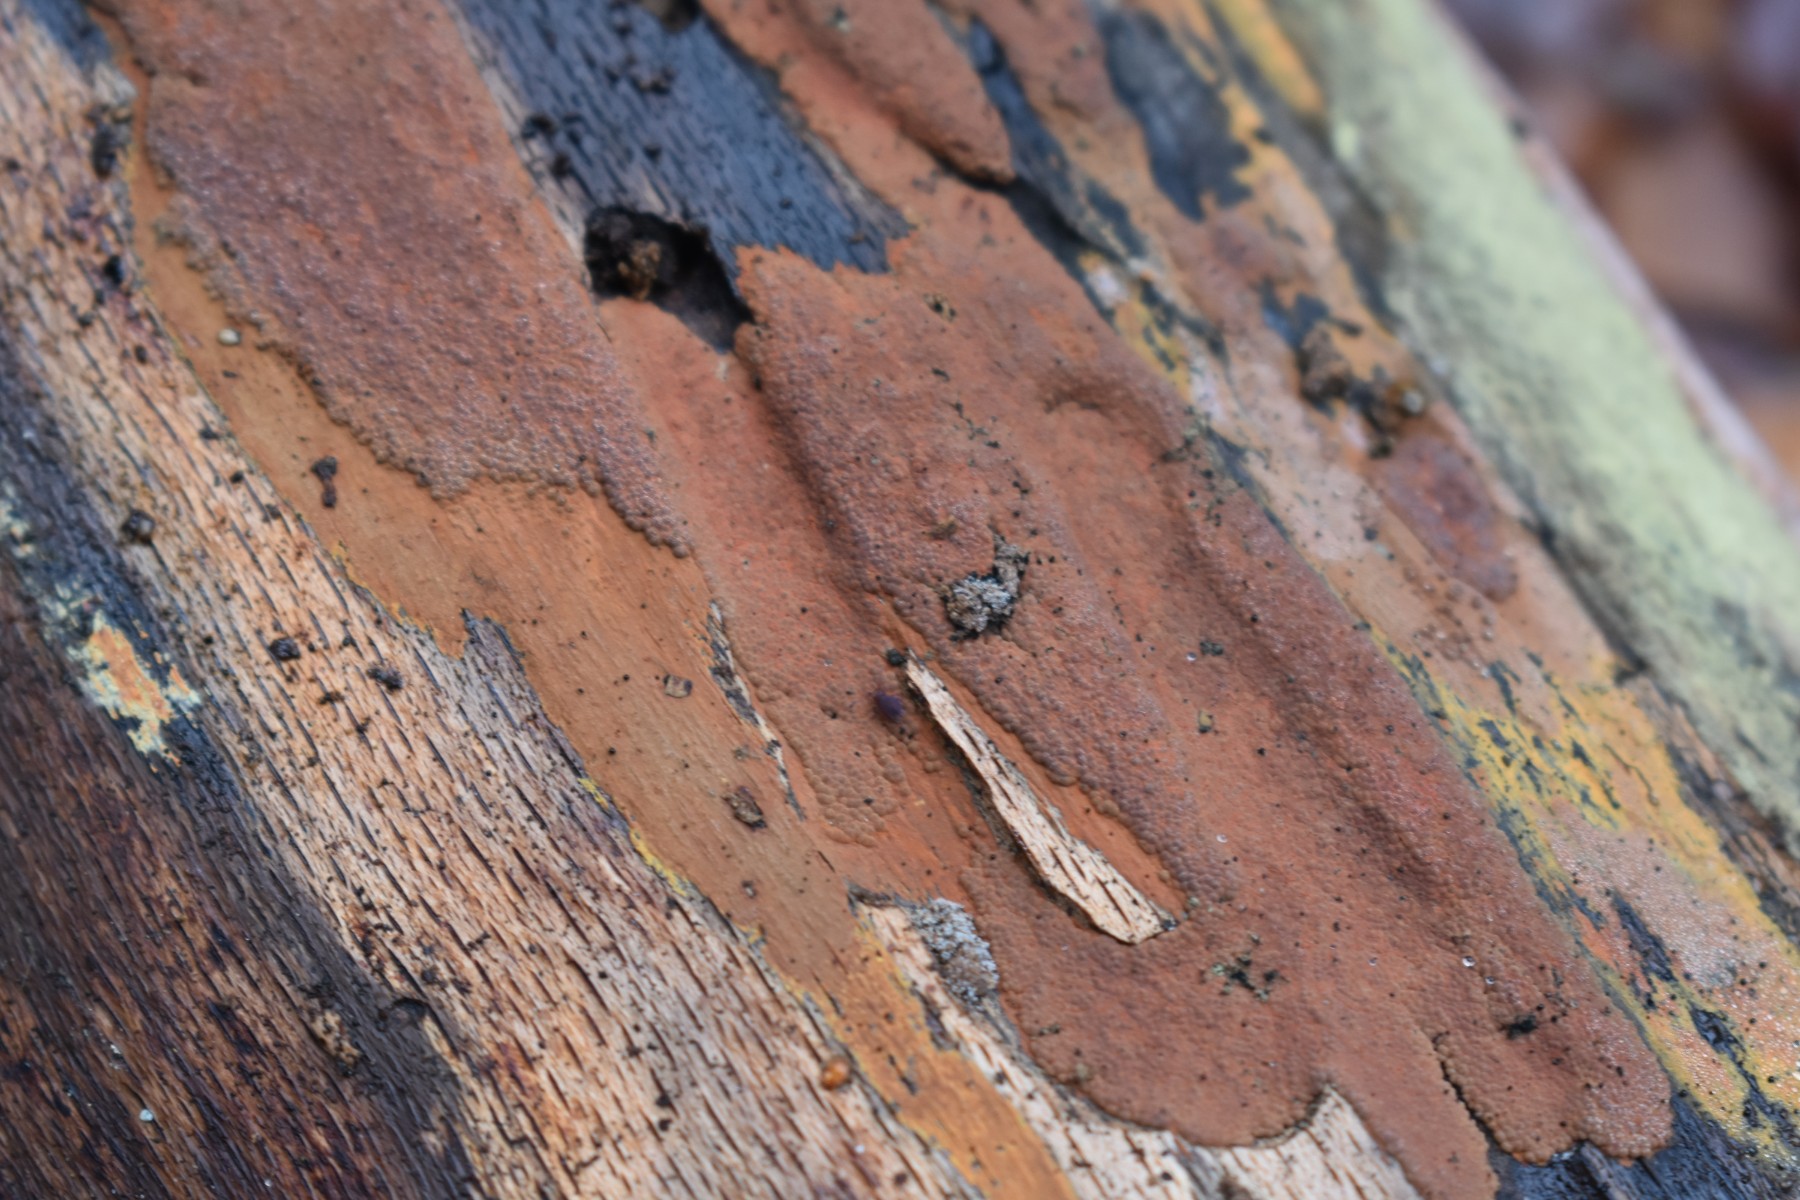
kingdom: Fungi
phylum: Ascomycota
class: Sordariomycetes
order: Xylariales
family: Hypoxylaceae
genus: Hypoxylon
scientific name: Hypoxylon rubiginosum
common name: rustfarvet kulbær
